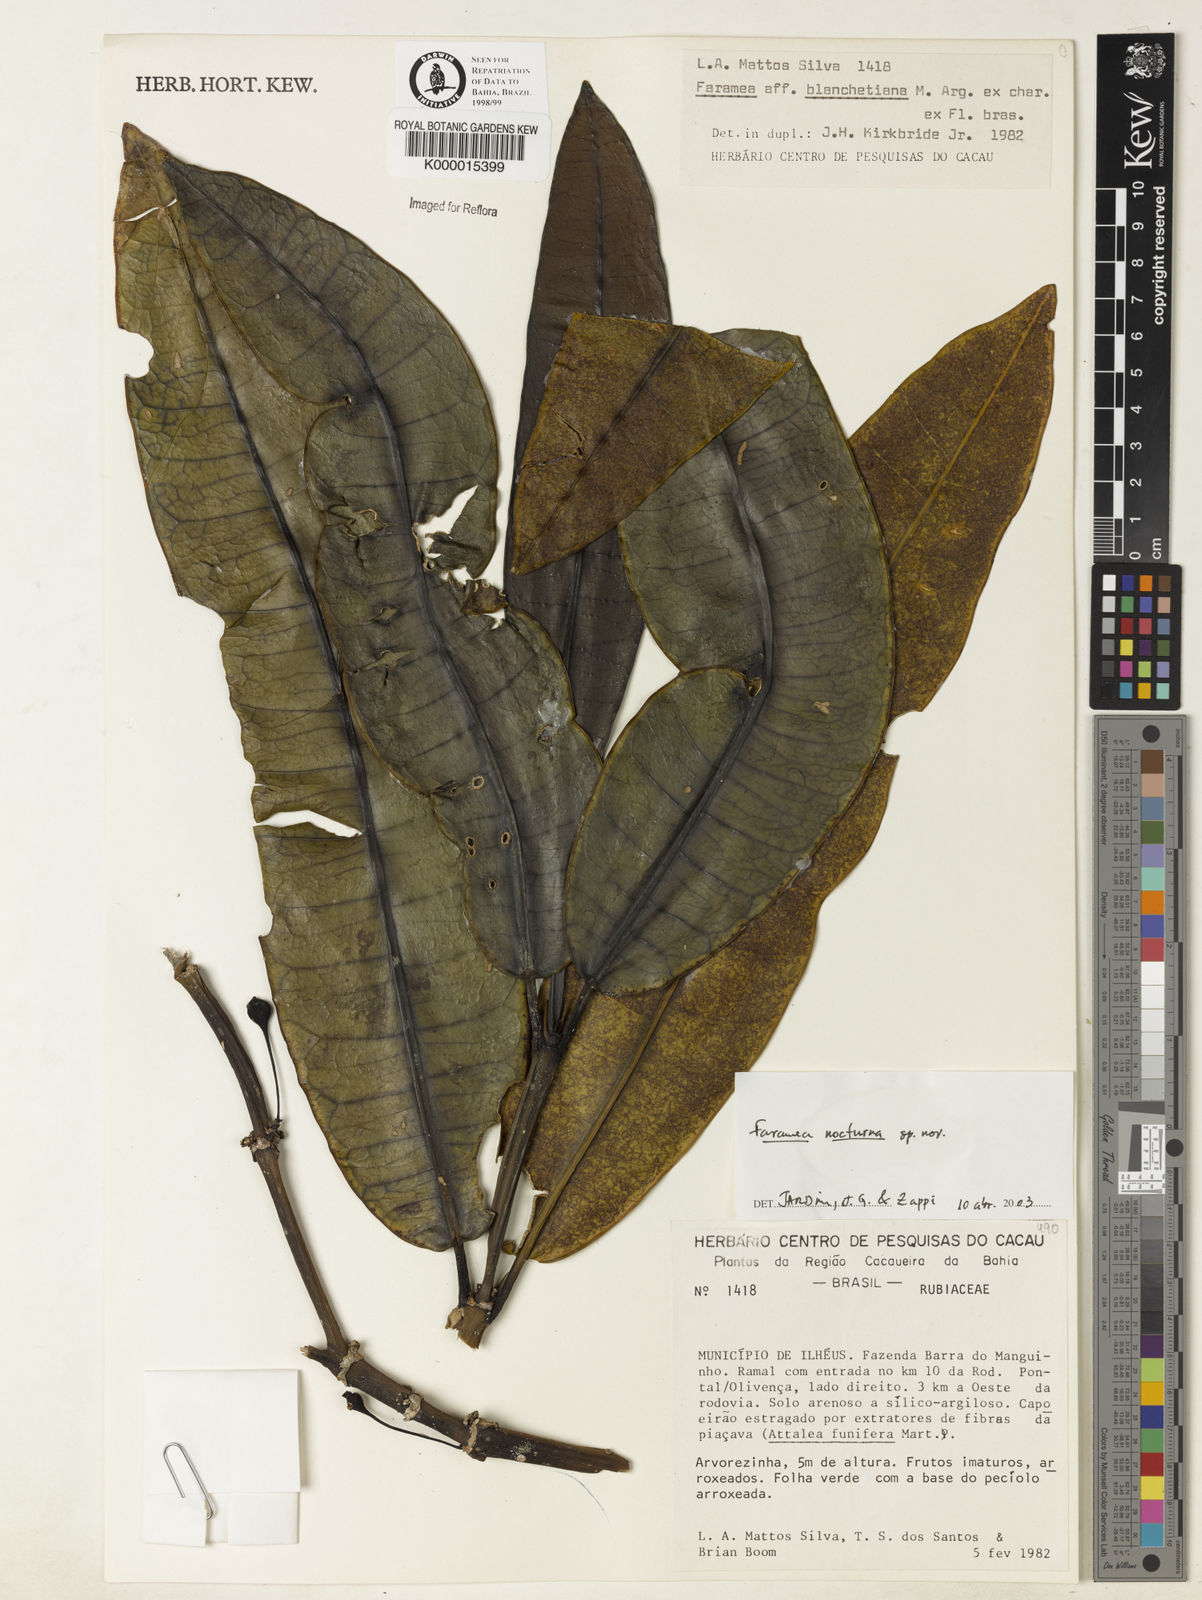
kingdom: Plantae
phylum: Tracheophyta
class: Magnoliopsida
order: Gentianales
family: Rubiaceae
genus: Faramea
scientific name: Faramea nocturna
